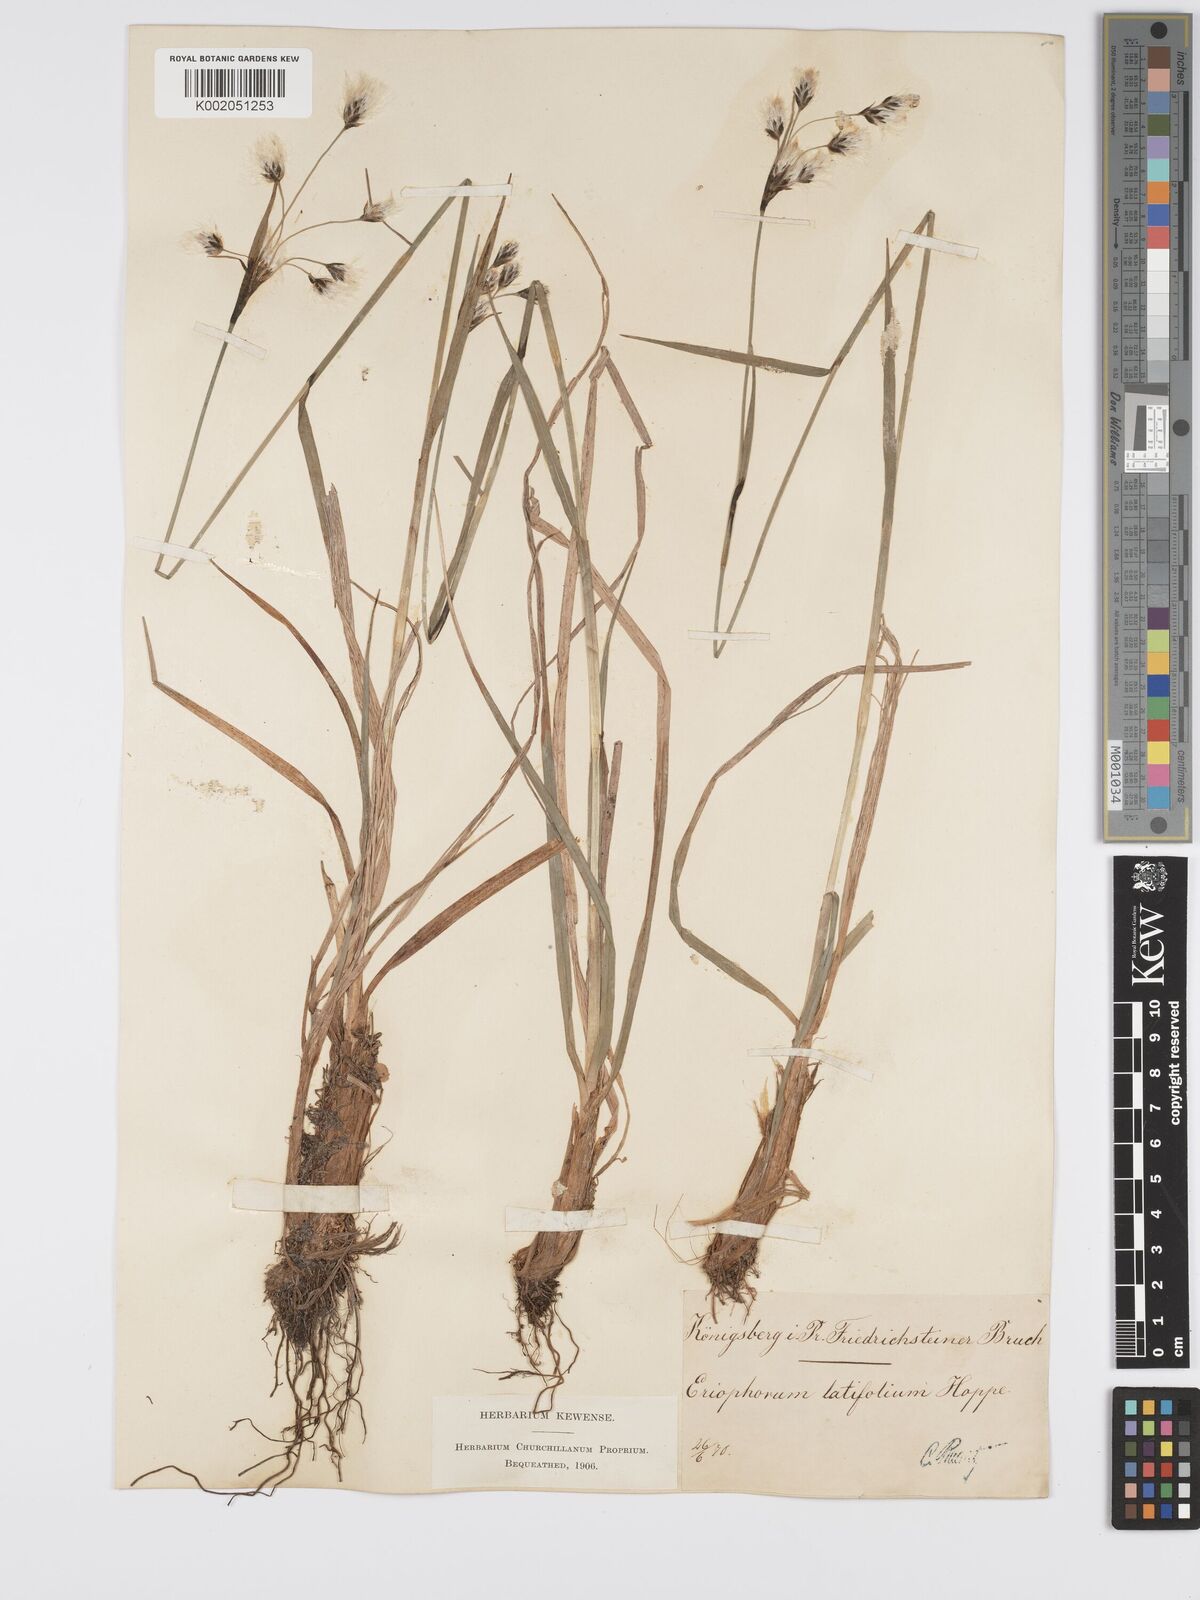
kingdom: Plantae
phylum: Tracheophyta
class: Liliopsida
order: Poales
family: Cyperaceae
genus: Eriophorum
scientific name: Eriophorum latifolium
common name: Broad-leaved cottongrass
